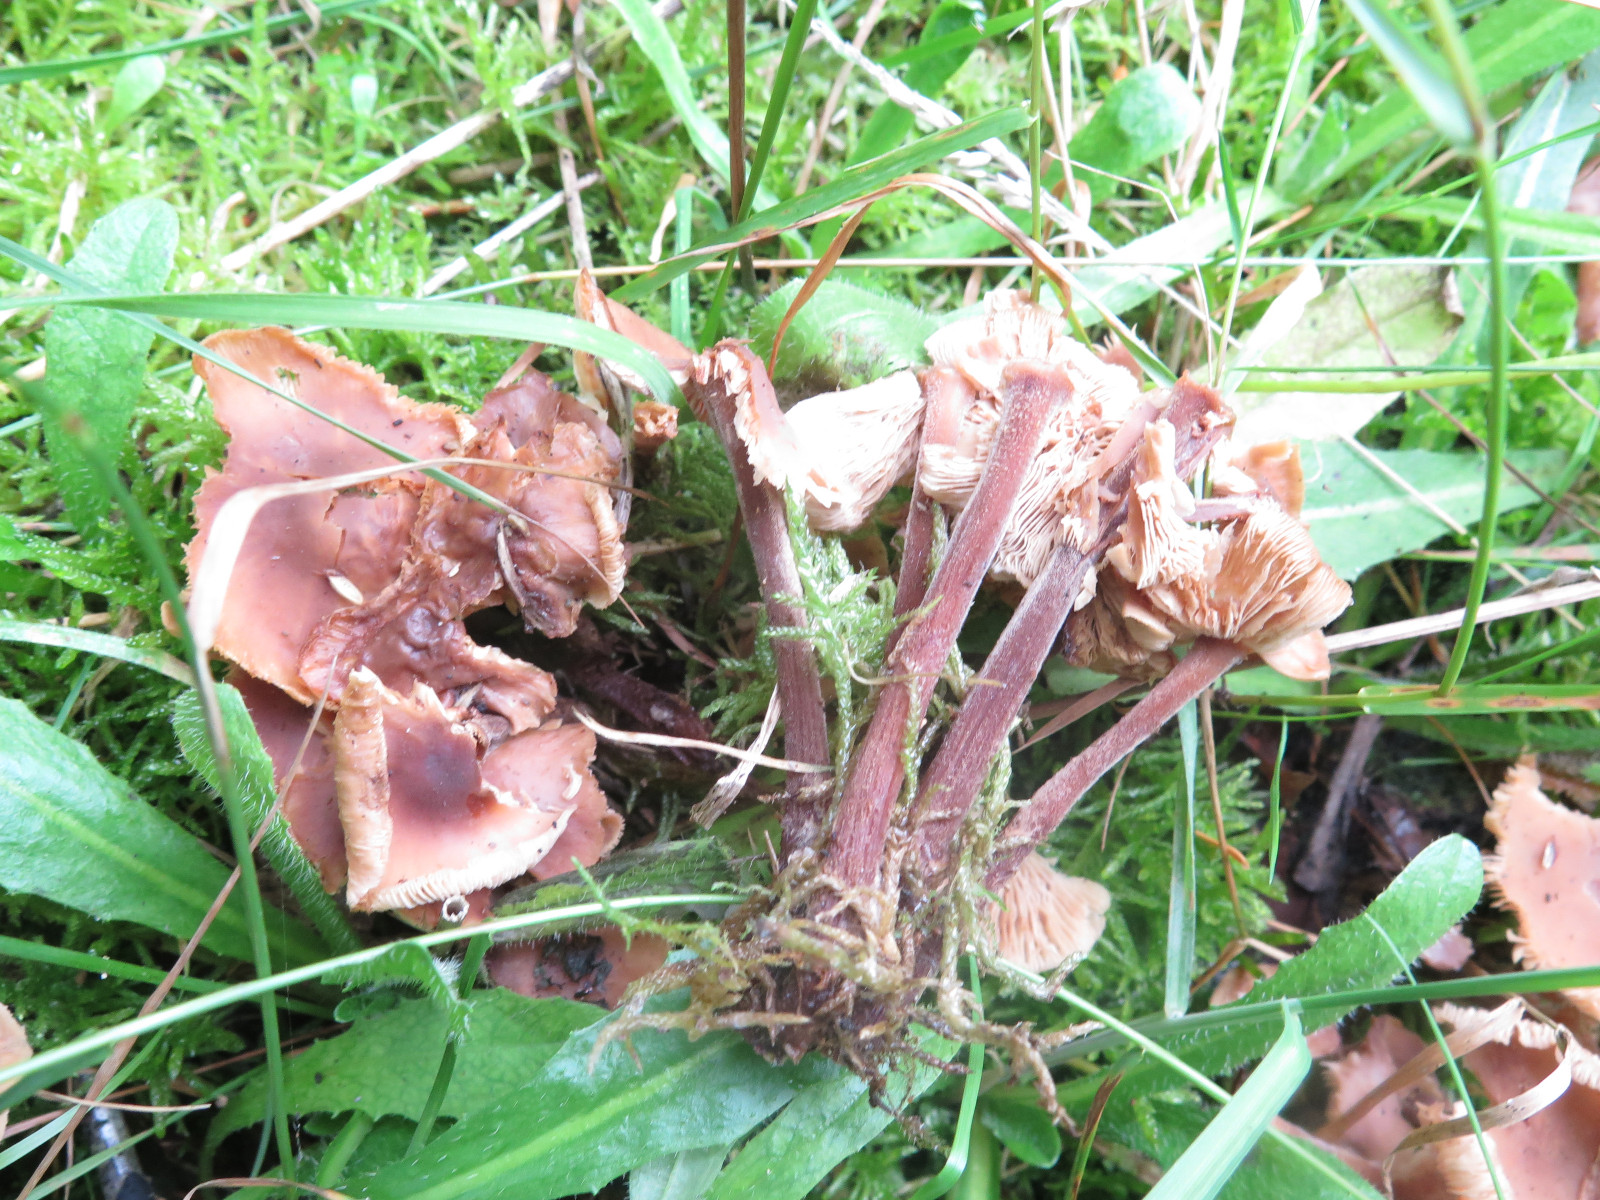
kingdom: Fungi
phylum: Basidiomycota
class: Agaricomycetes
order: Agaricales
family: Omphalotaceae
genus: Connopus
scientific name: Connopus acervatus
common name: tue-fladhat
